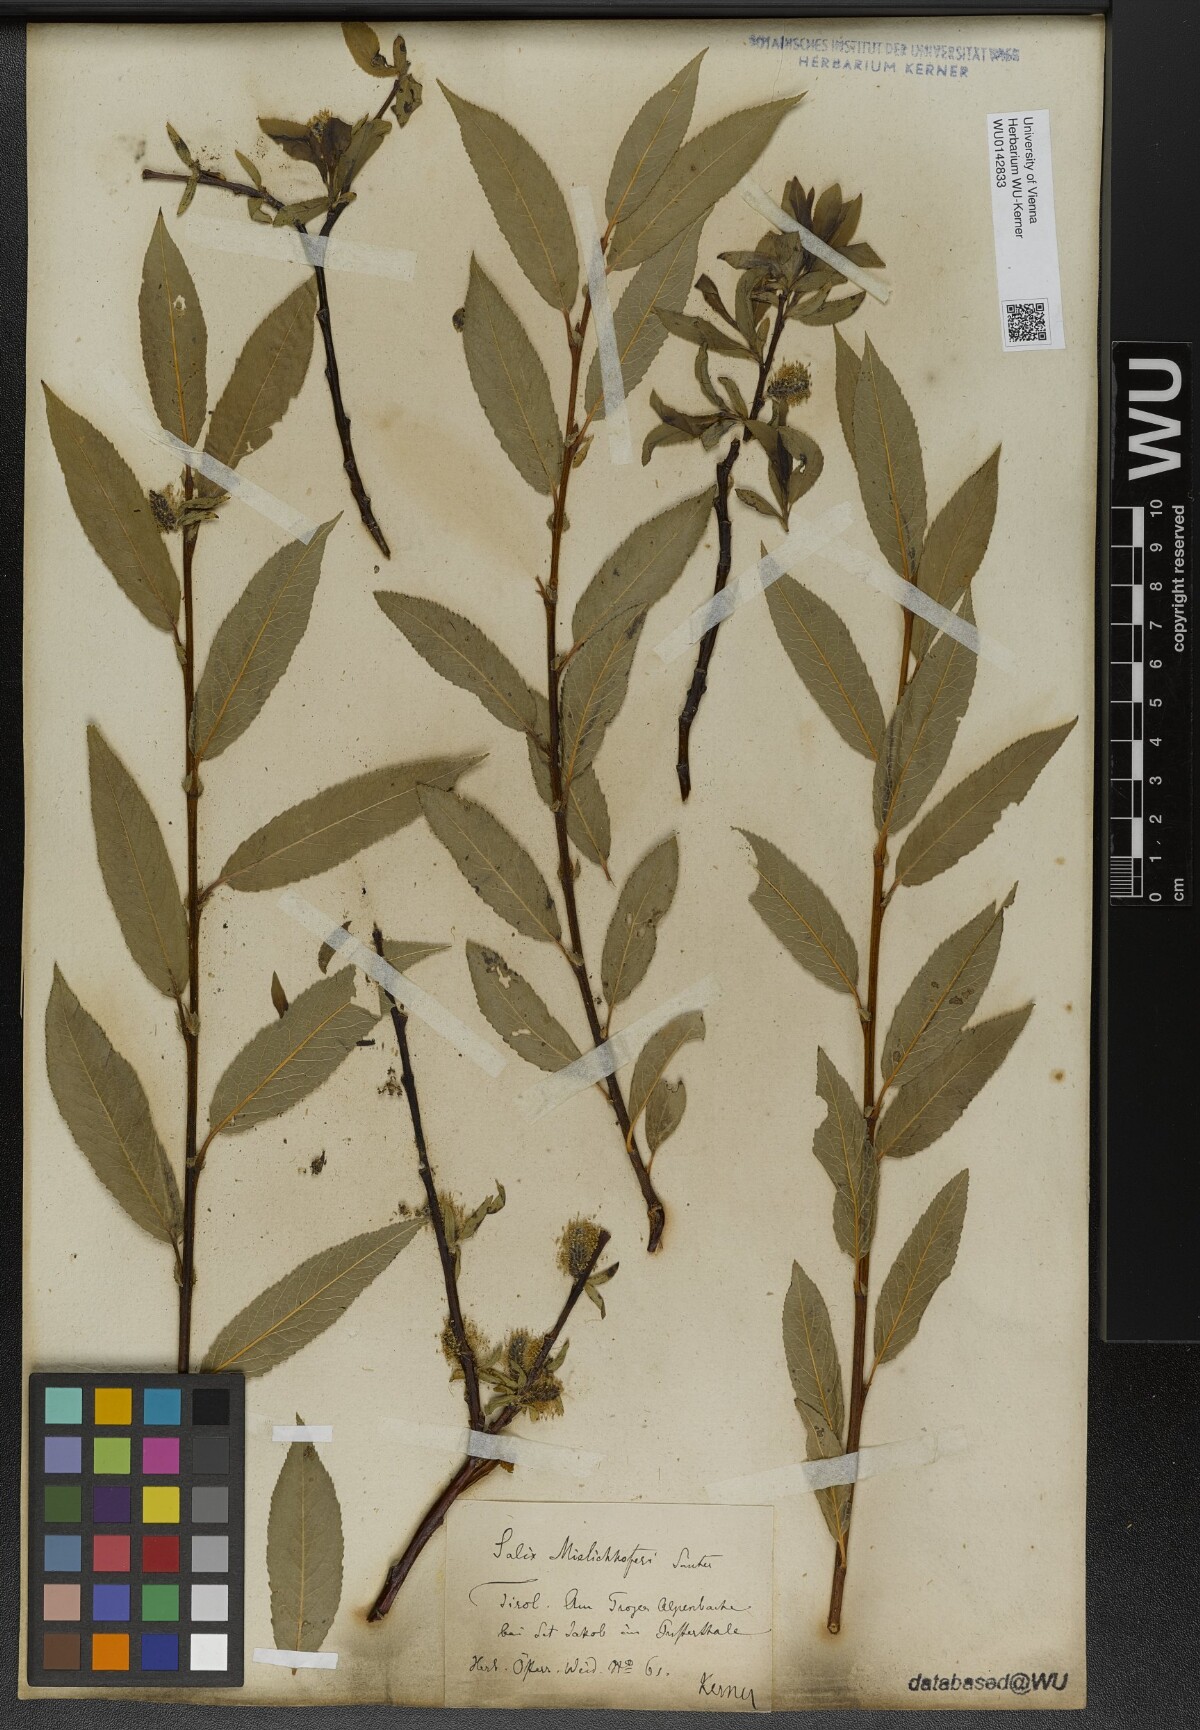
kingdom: Plantae
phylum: Tracheophyta
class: Magnoliopsida
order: Malpighiales
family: Salicaceae
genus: Salix
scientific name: Salix mielichhoferi
